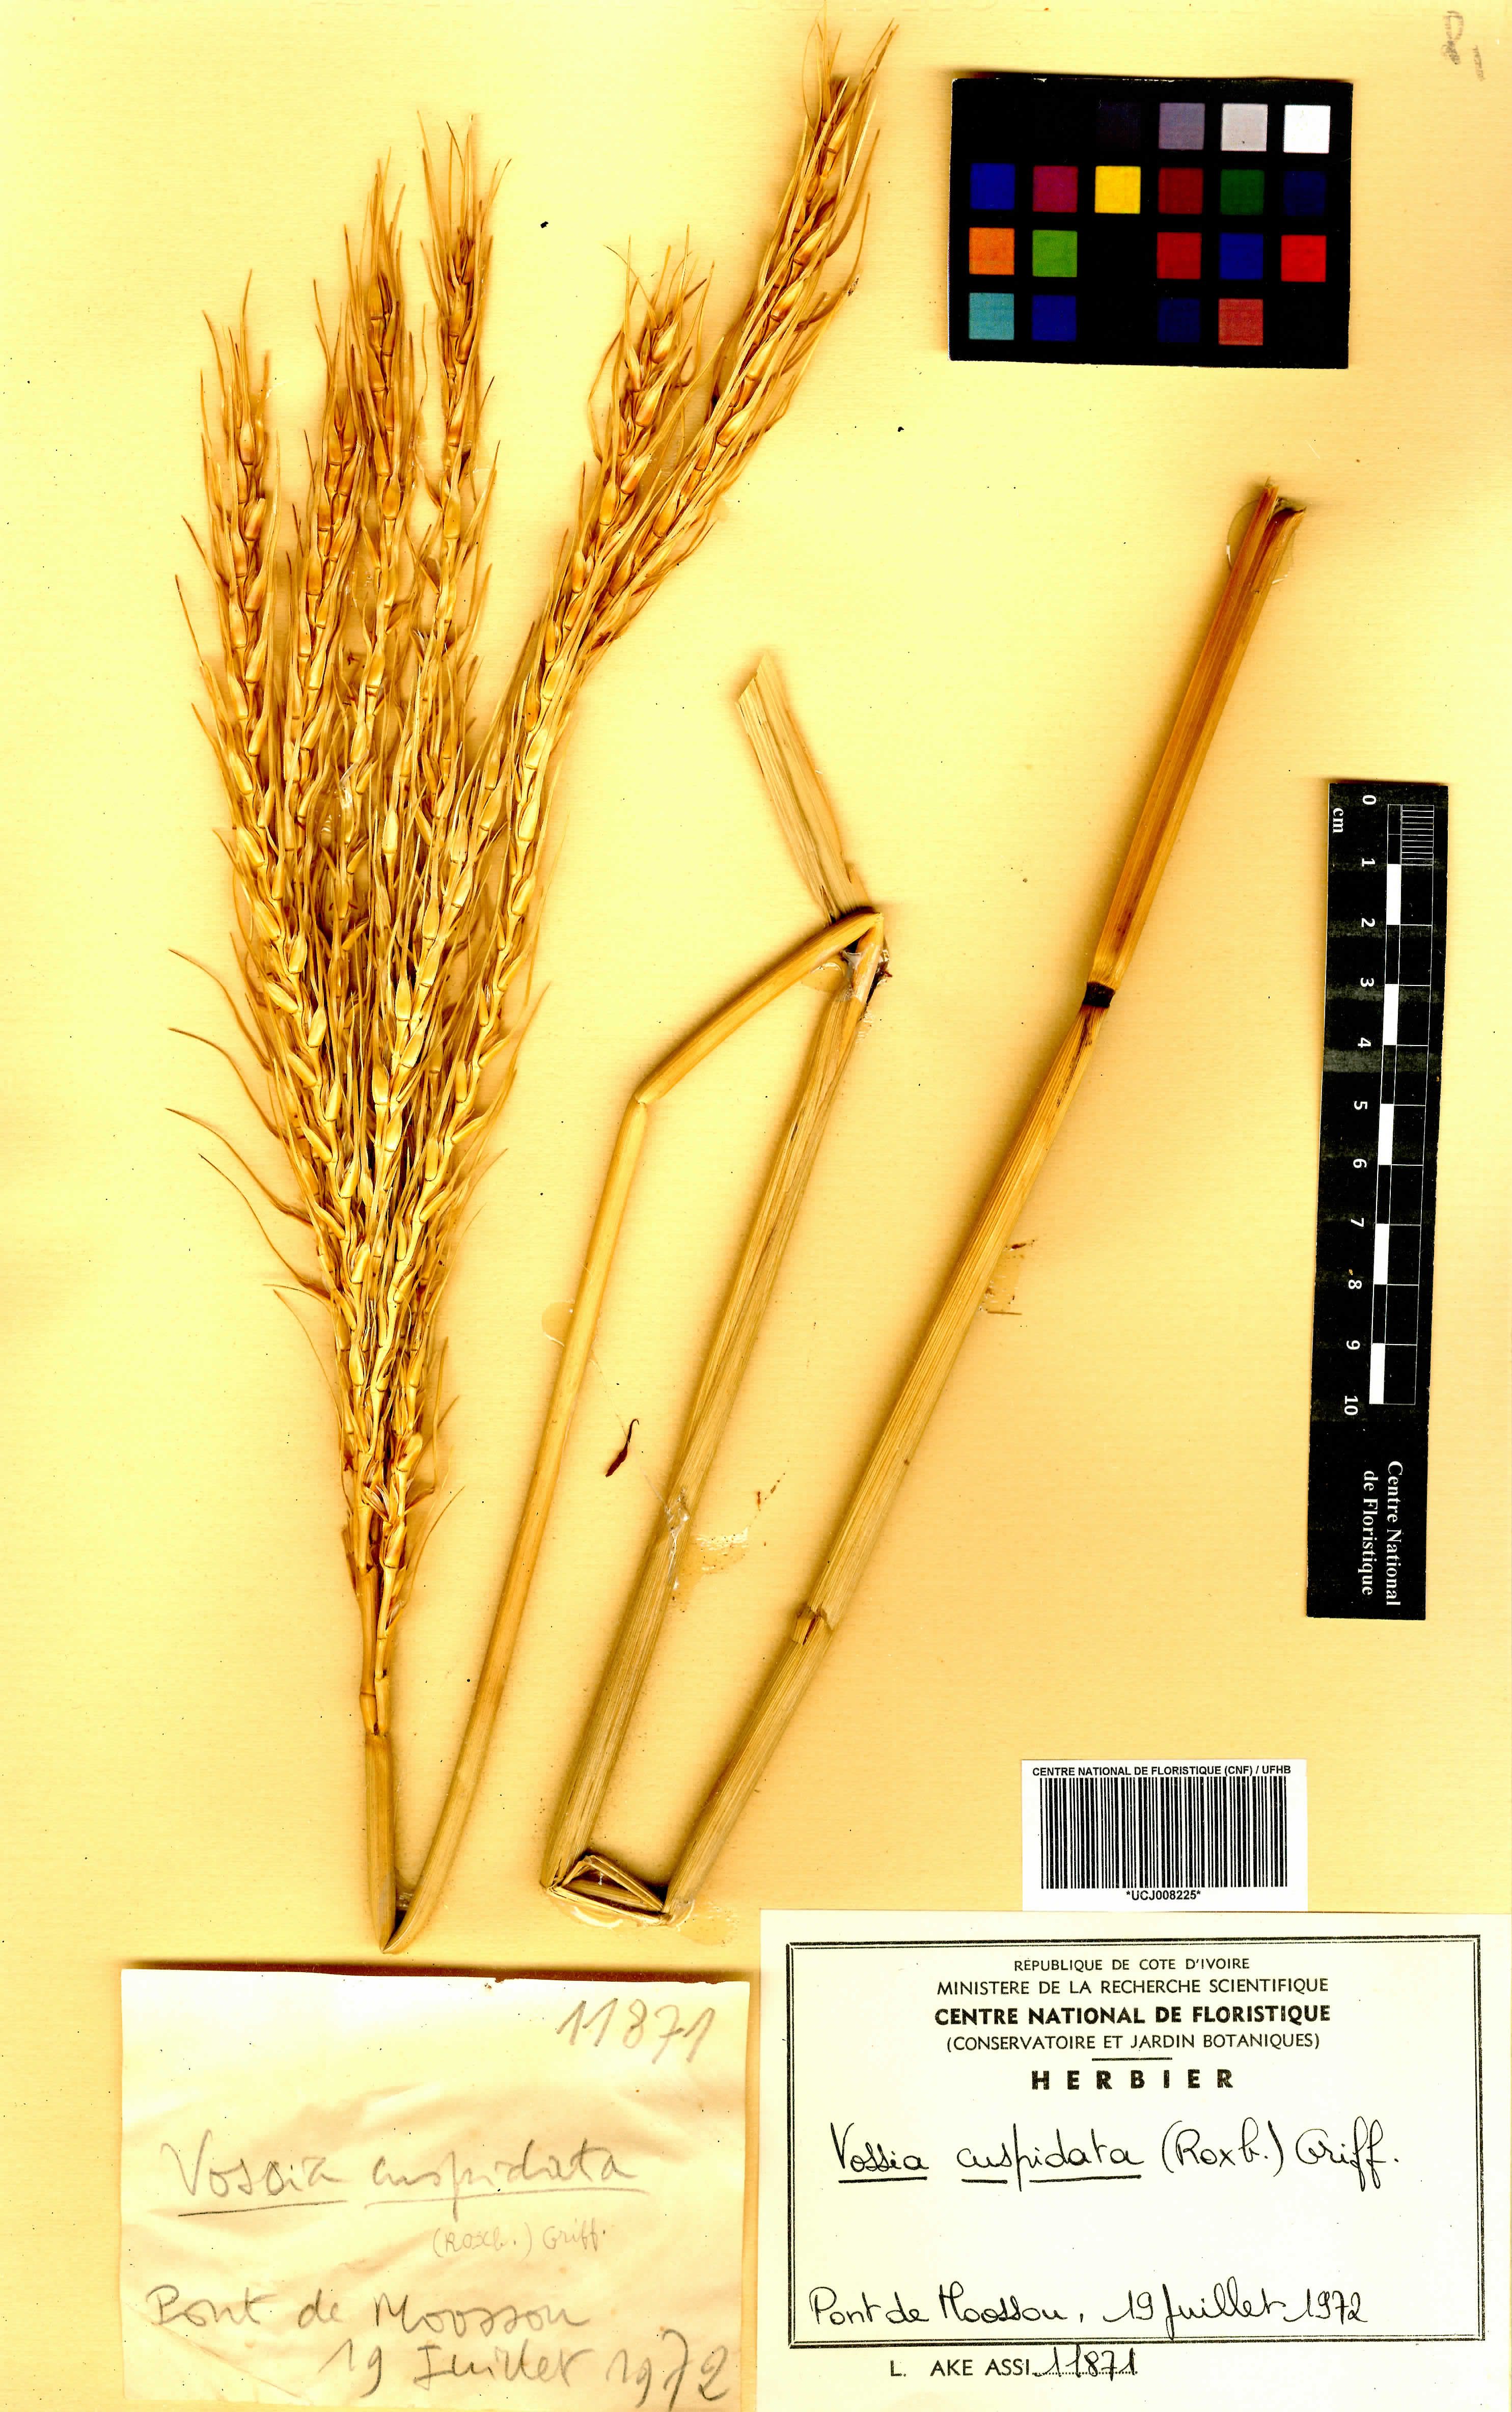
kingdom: Plantae
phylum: Tracheophyta
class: Liliopsida
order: Poales
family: Poaceae
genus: Vossia
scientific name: Vossia cuspidata
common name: Hippo grass
